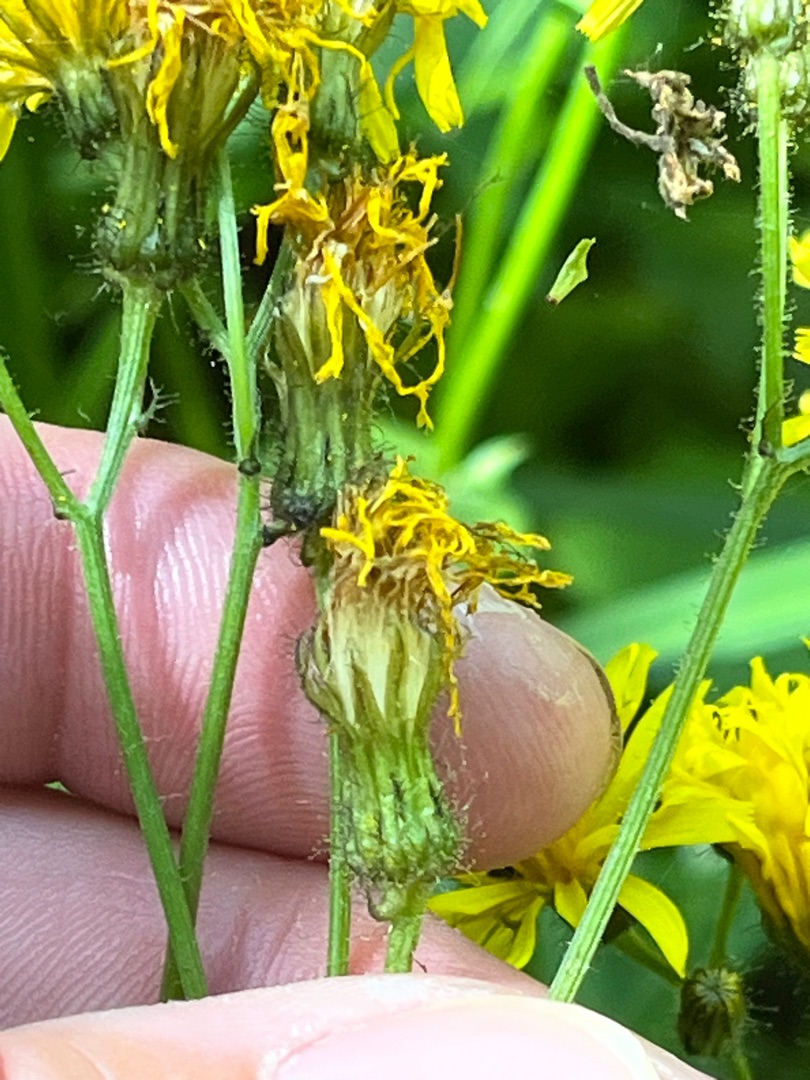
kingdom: Plantae
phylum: Tracheophyta
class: Magnoliopsida
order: Asterales
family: Asteraceae
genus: Crepis
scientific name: Crepis paludosa
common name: Kær-høgeskæg
